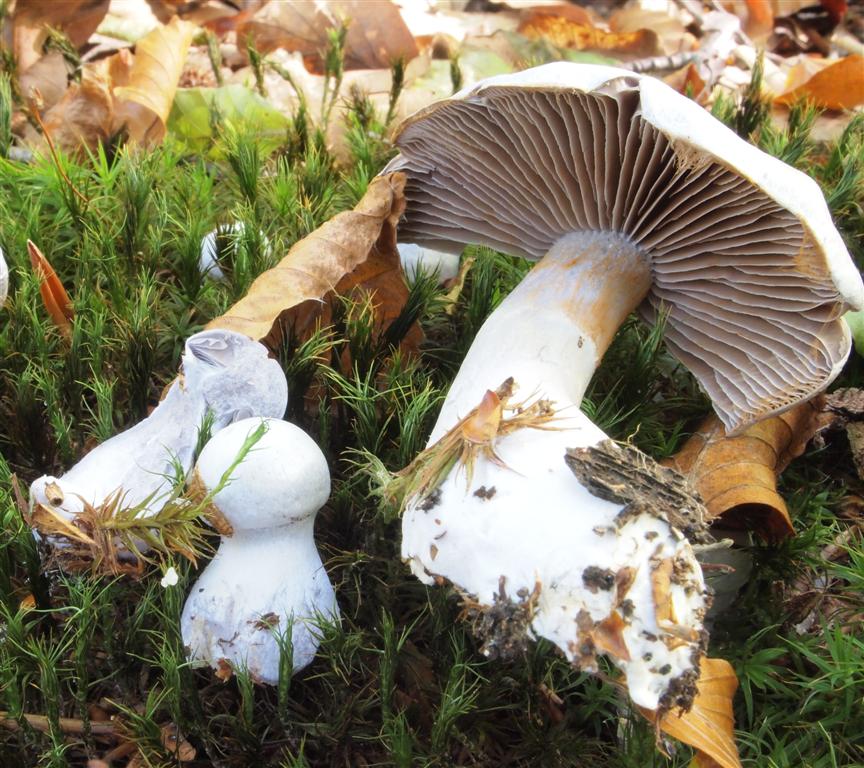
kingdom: Fungi
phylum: Basidiomycota
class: Agaricomycetes
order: Agaricales
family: Cortinariaceae
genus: Cortinarius
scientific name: Cortinarius alboviolaceus
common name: lysviolet slørhat
